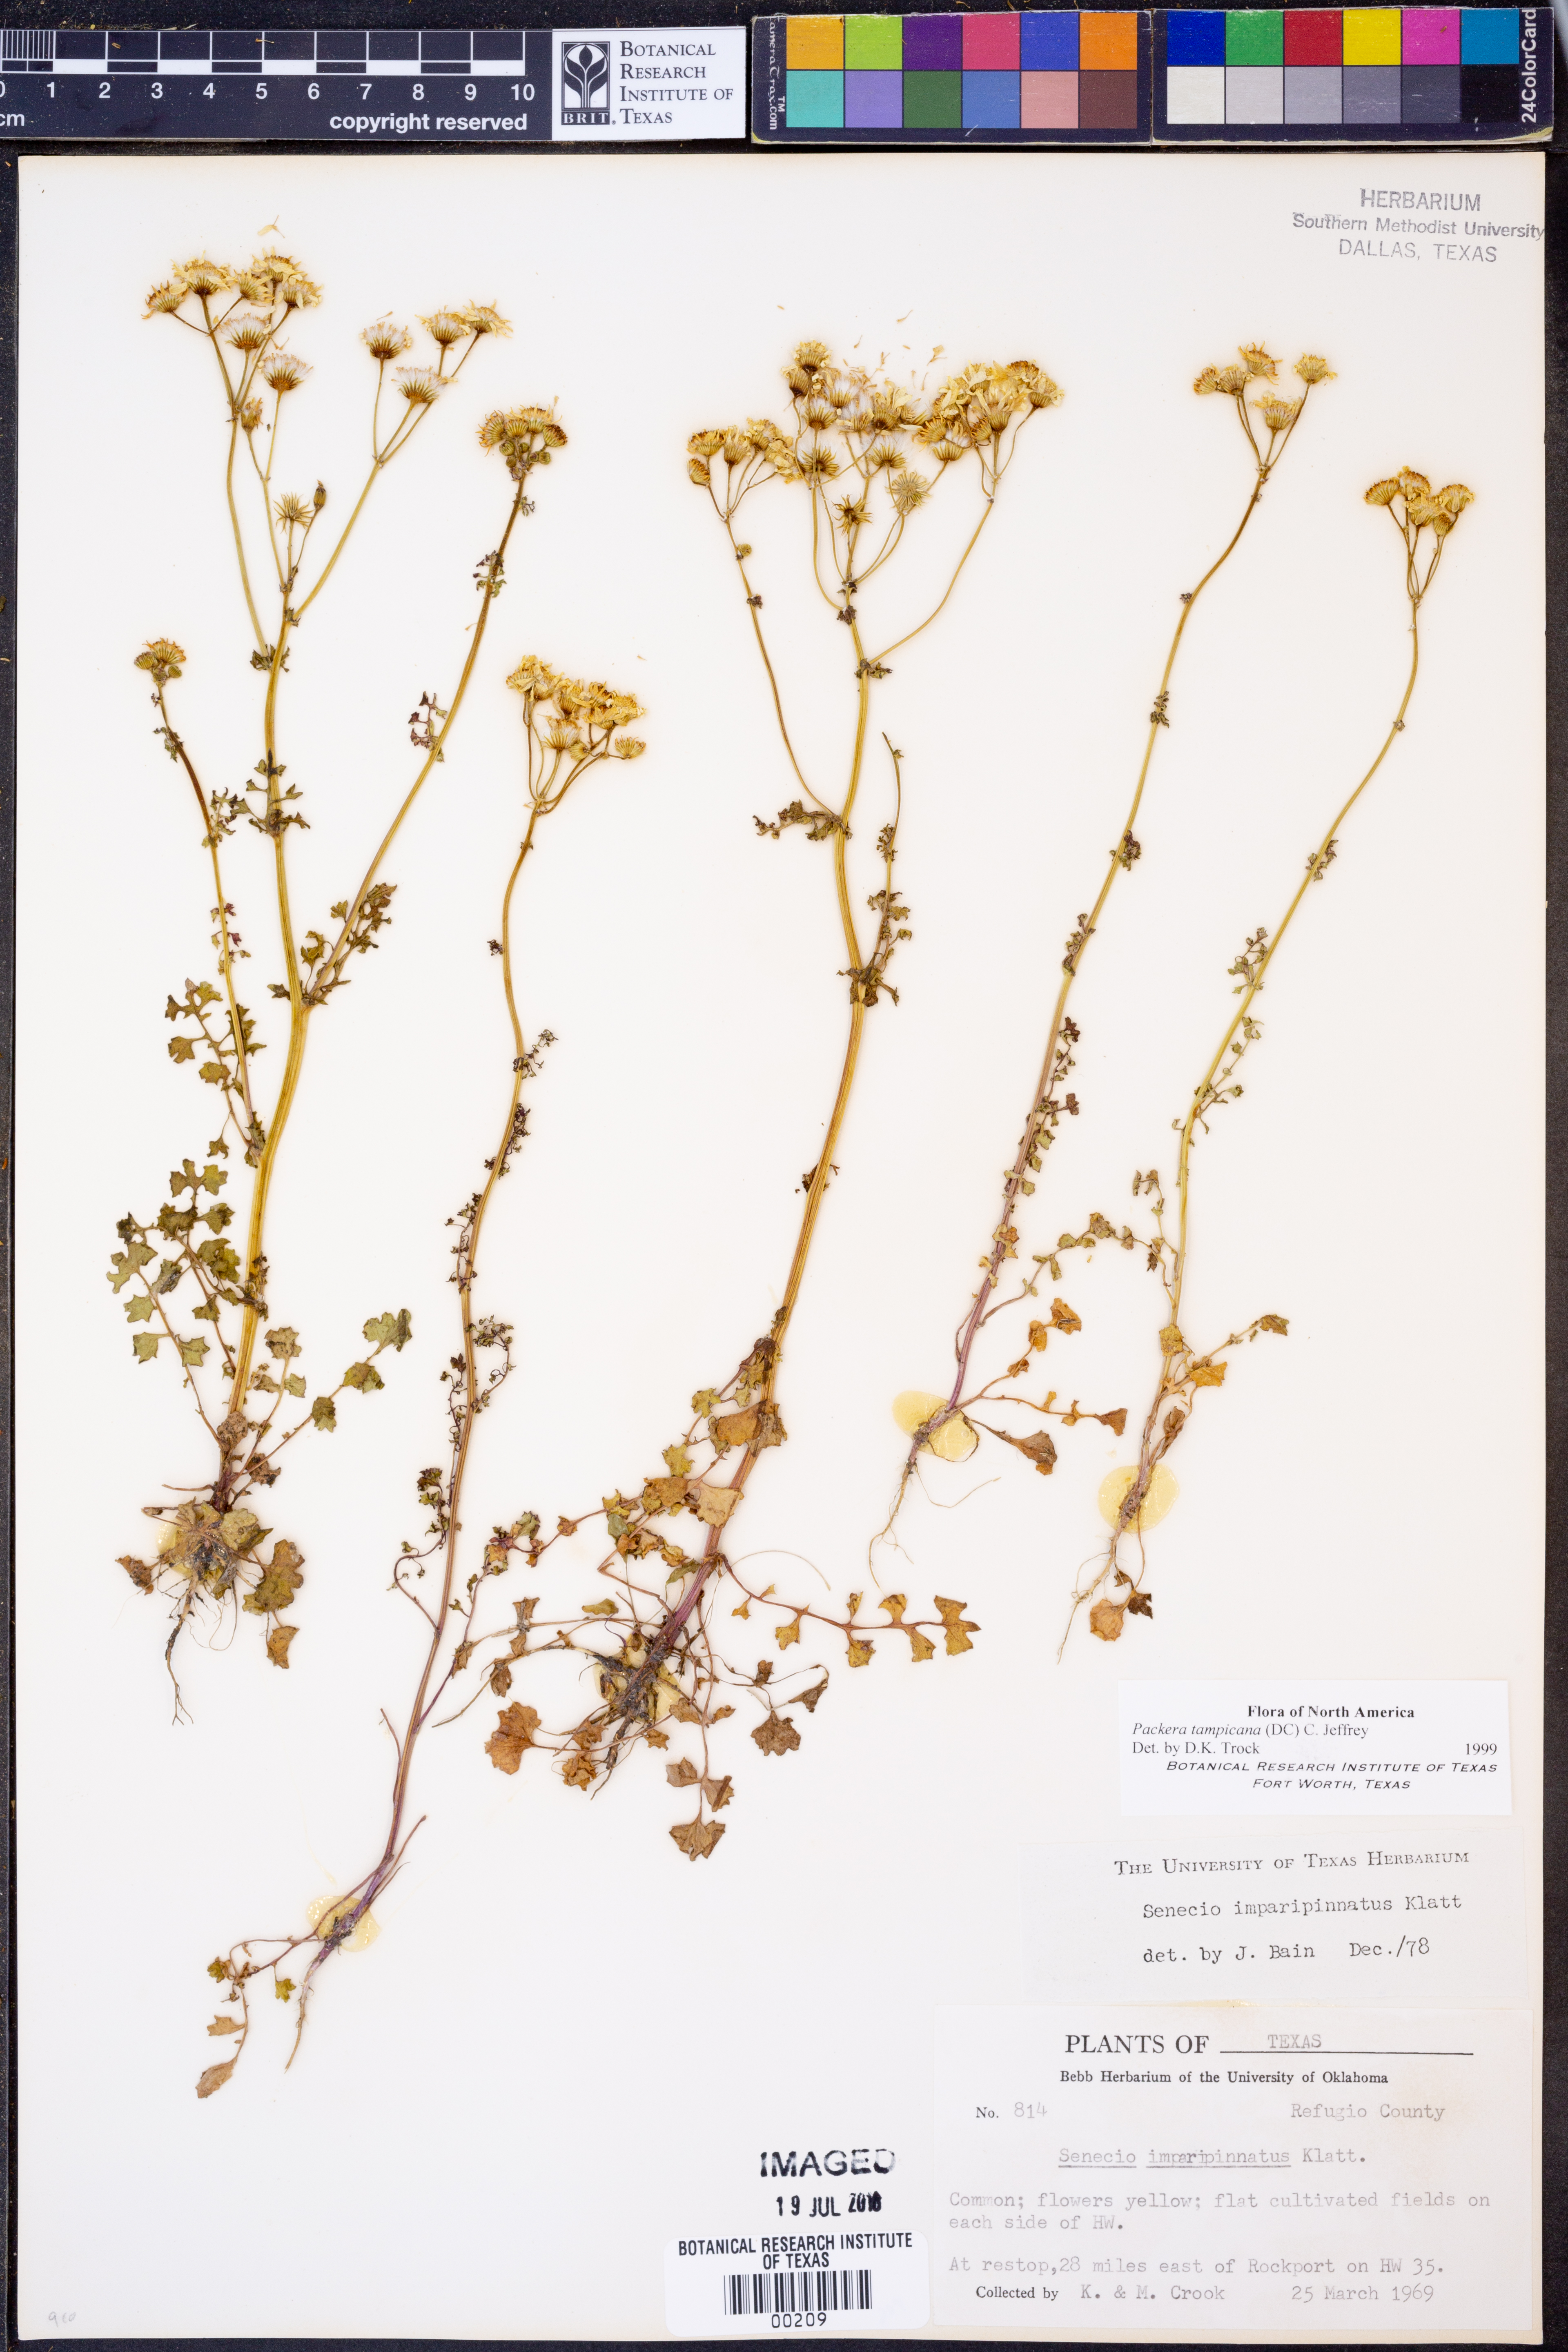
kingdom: Plantae
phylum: Tracheophyta
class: Magnoliopsida
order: Asterales
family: Asteraceae
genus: Packera
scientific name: Packera tampicana
